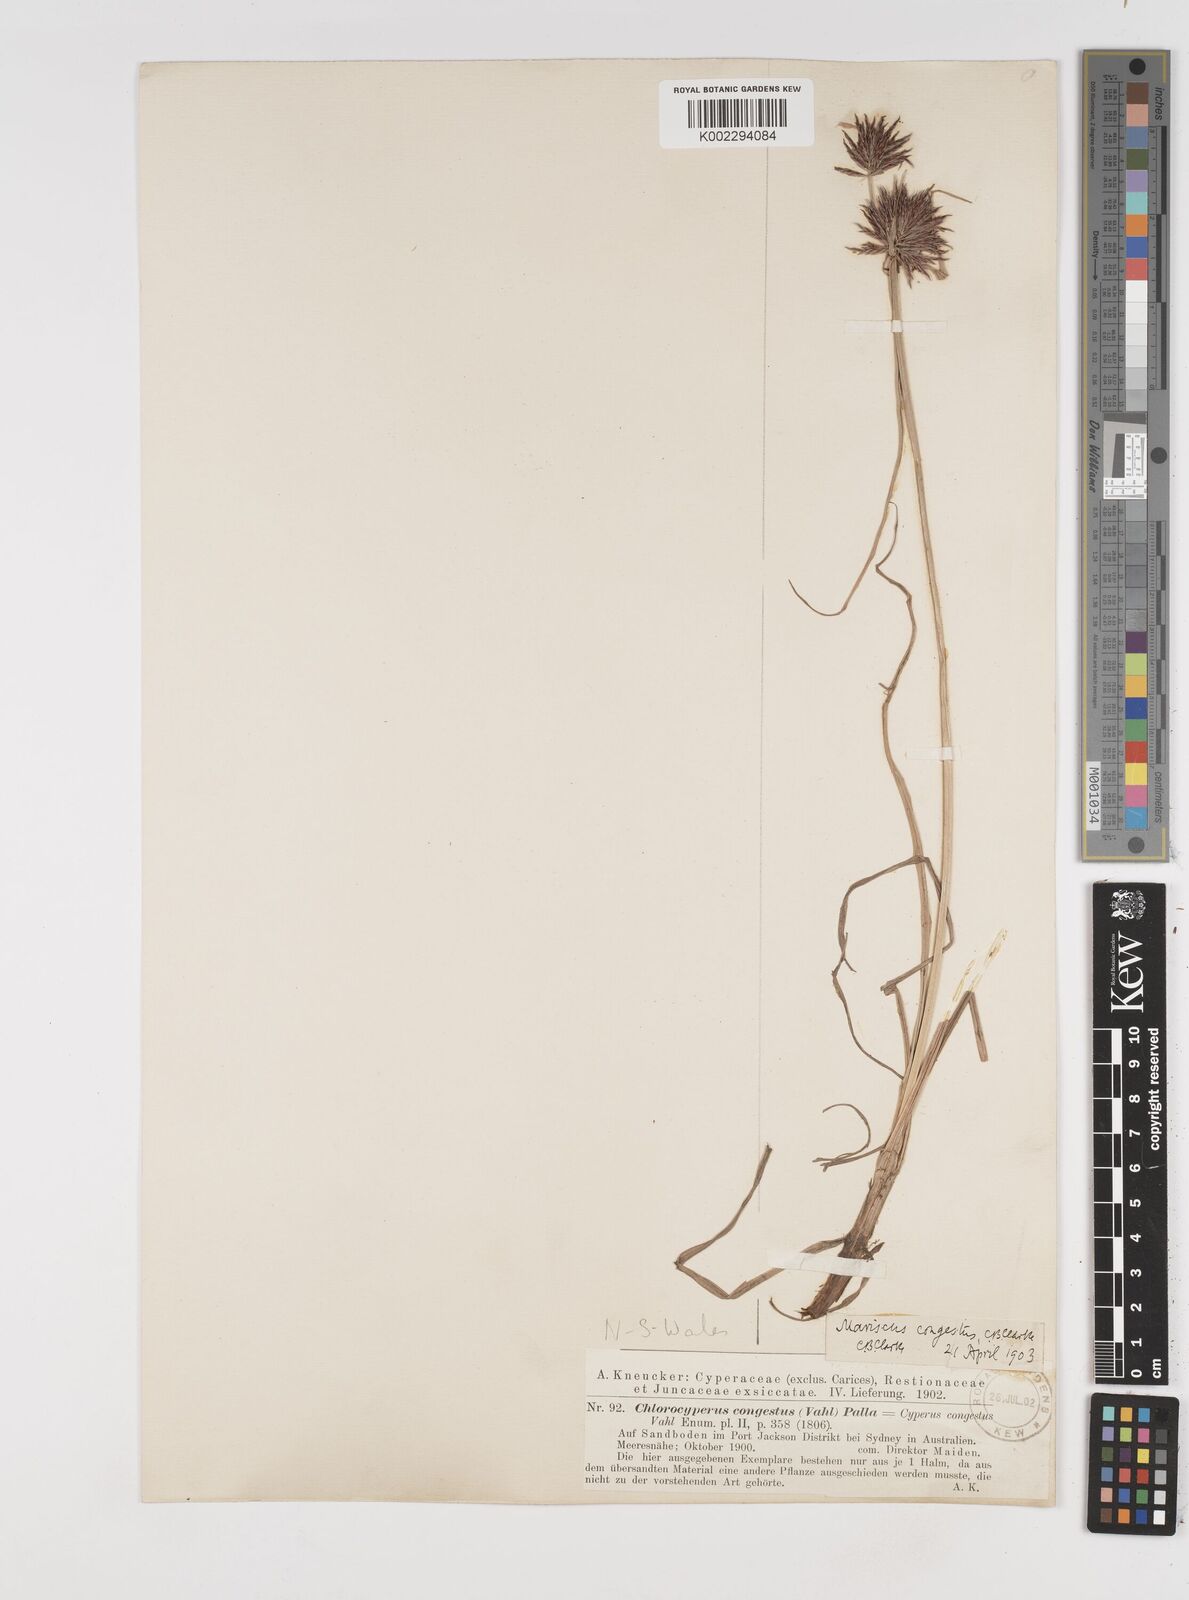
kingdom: Plantae
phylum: Tracheophyta
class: Liliopsida
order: Poales
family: Cyperaceae
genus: Cyperus
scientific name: Cyperus congestus
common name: Dense flat sedge
